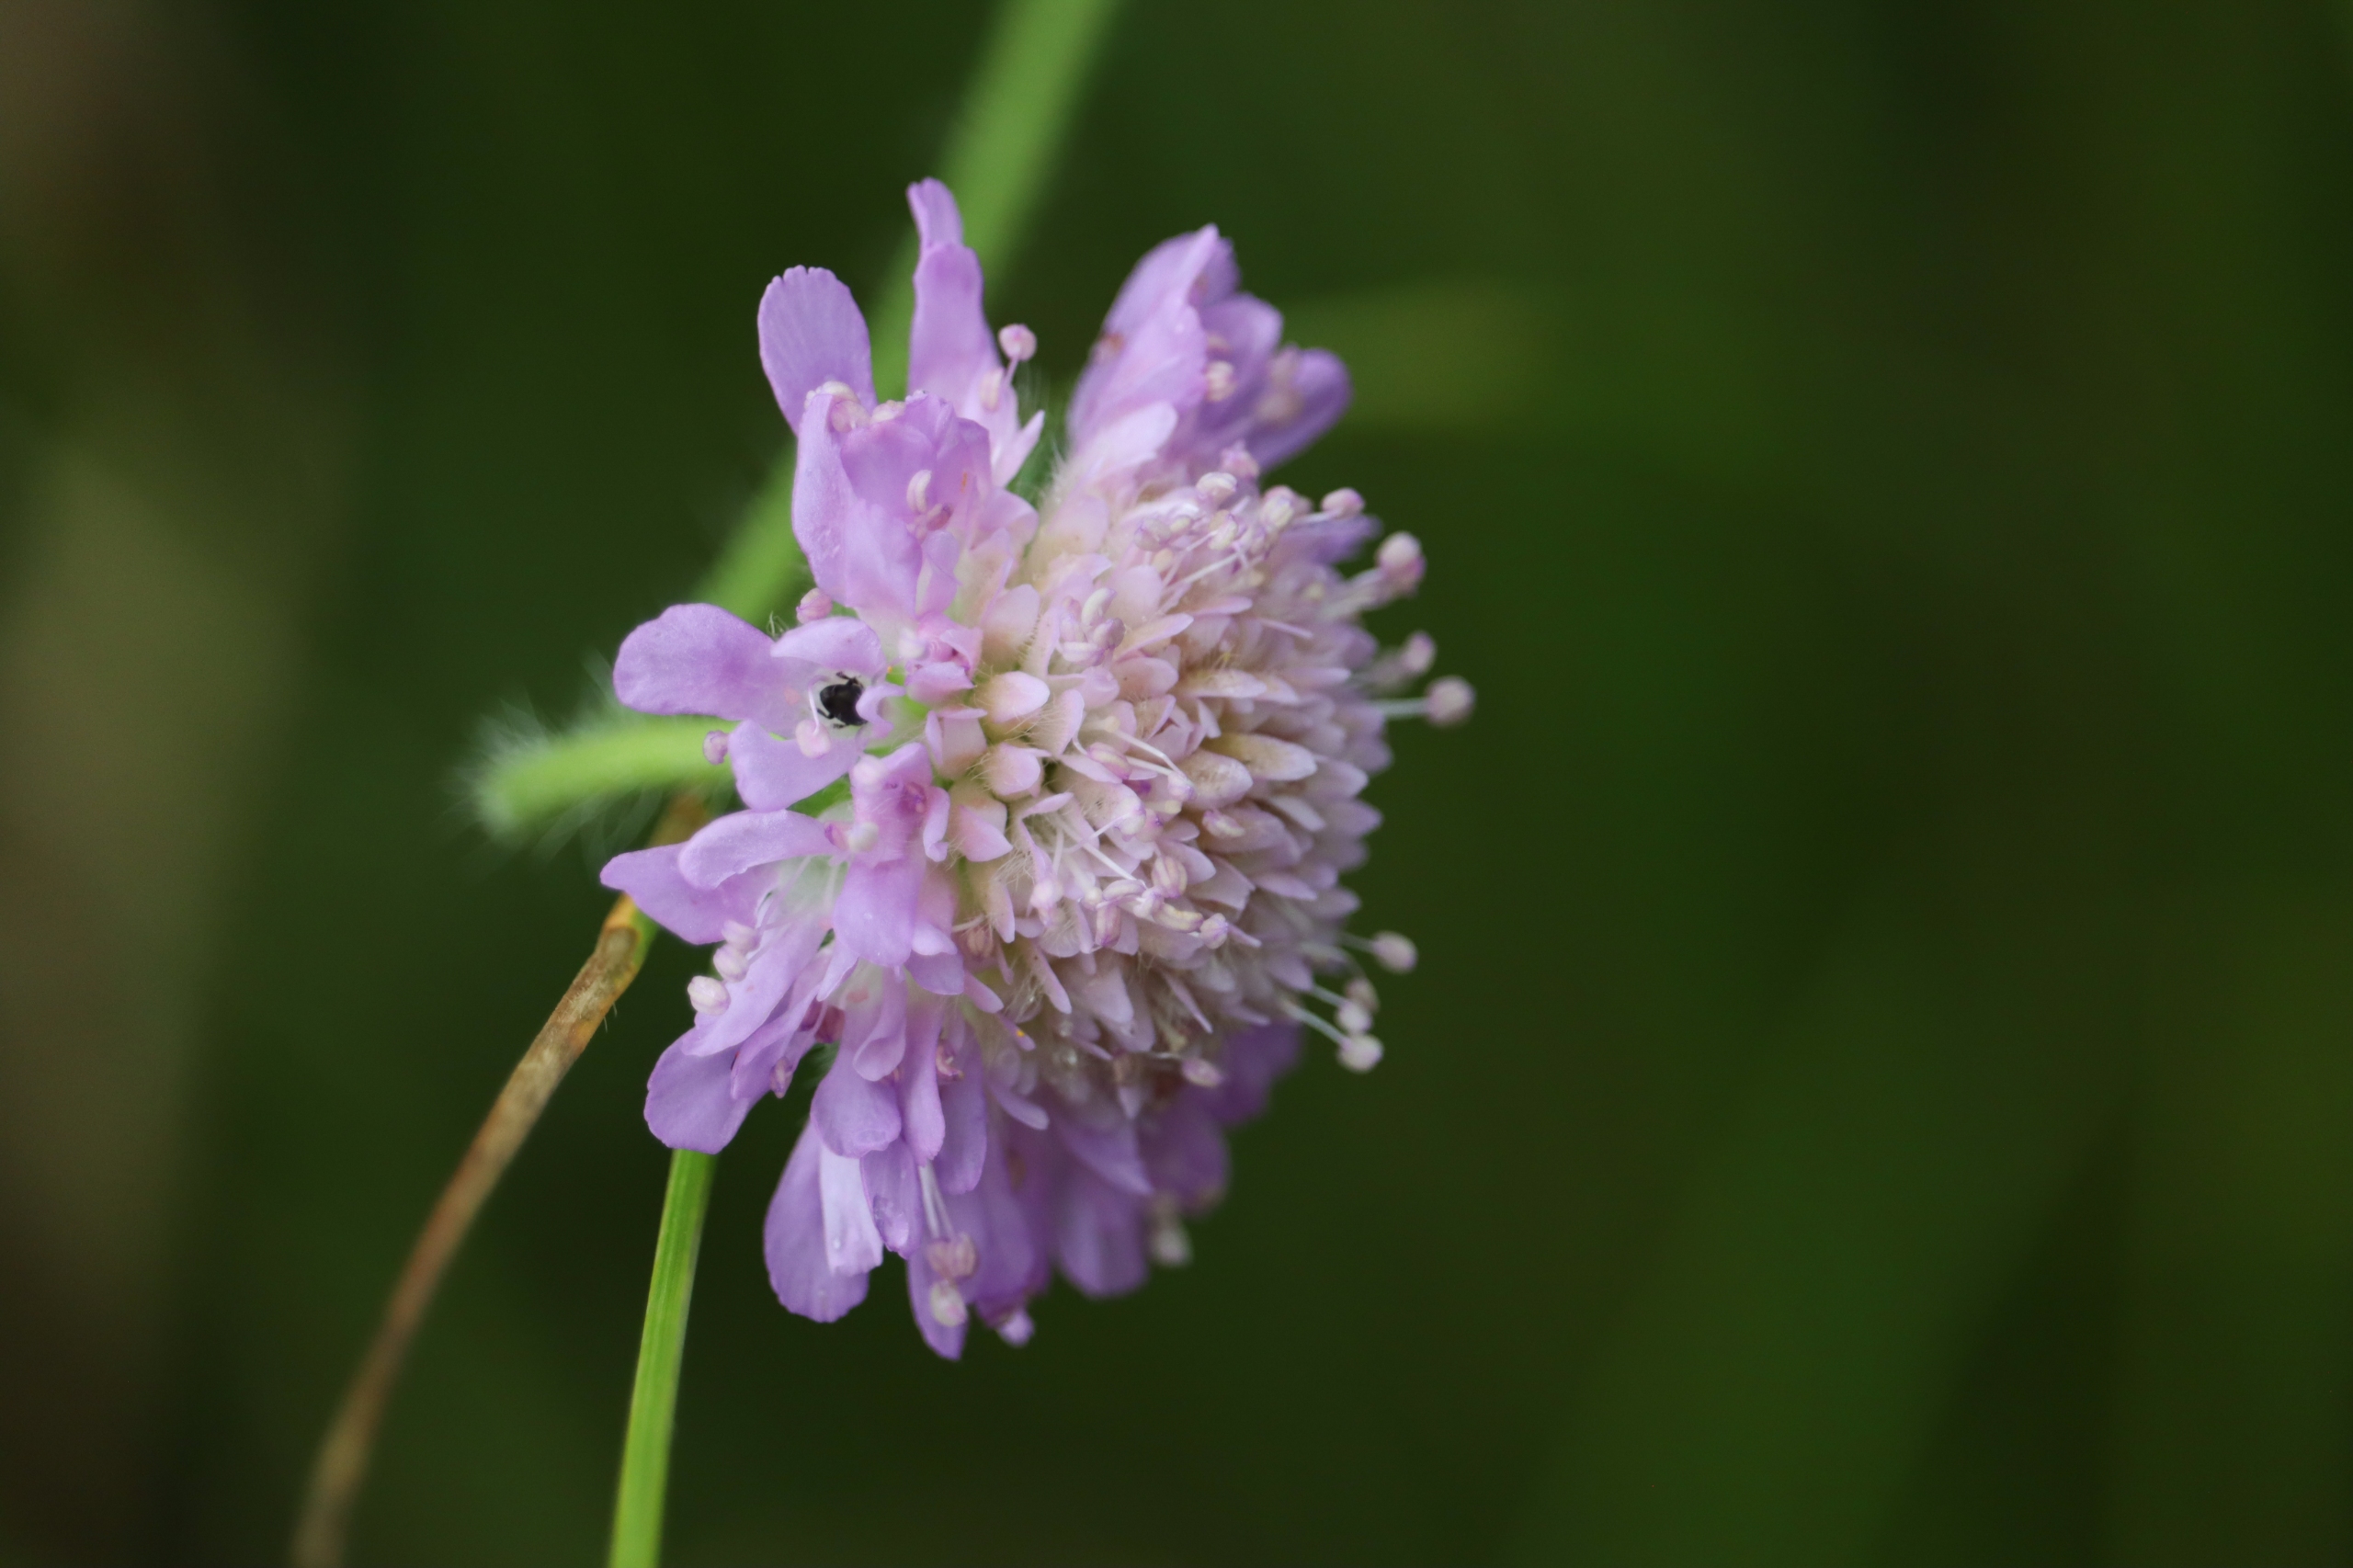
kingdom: Plantae
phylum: Tracheophyta
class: Magnoliopsida
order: Dipsacales
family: Caprifoliaceae
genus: Knautia
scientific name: Knautia arvensis
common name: Blåhat
